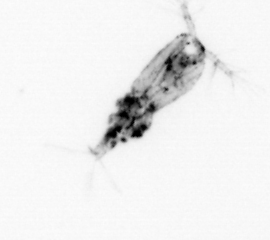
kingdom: Animalia
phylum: Arthropoda
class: Copepoda
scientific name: Copepoda
